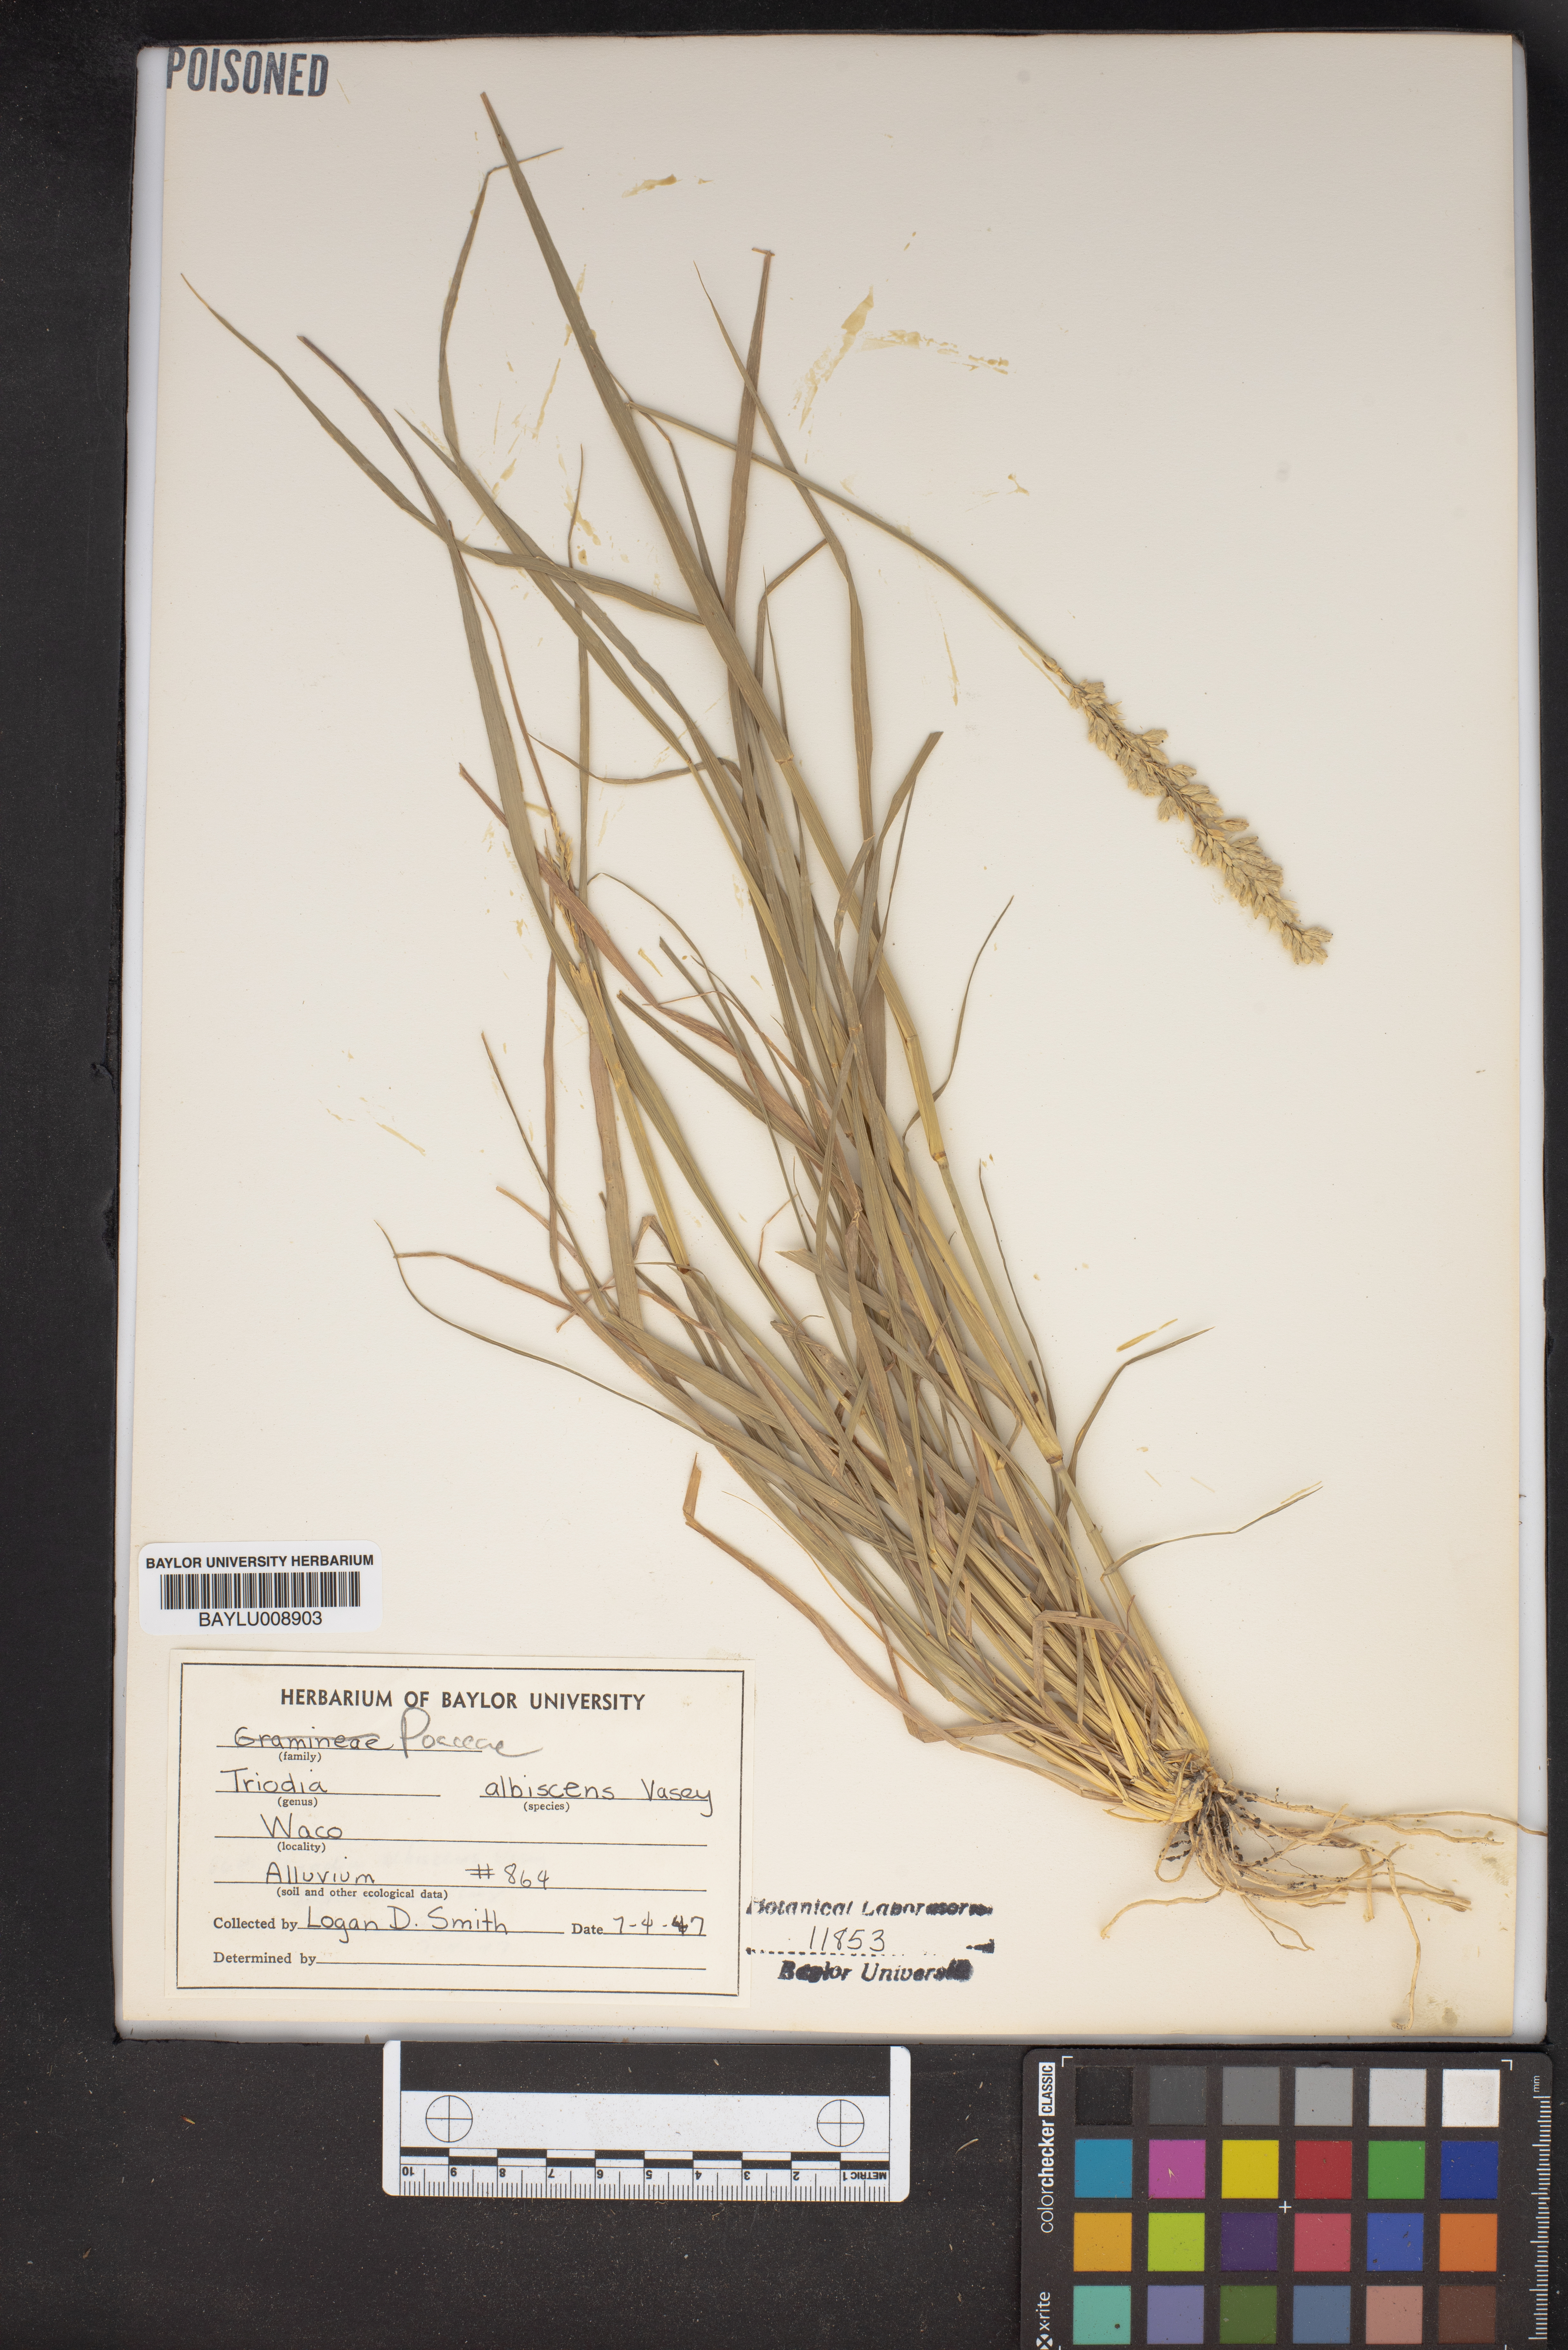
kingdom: Plantae
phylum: Tracheophyta
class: Liliopsida
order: Poales
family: Poaceae
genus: Tridens
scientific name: Tridens albescens
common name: White tridens
